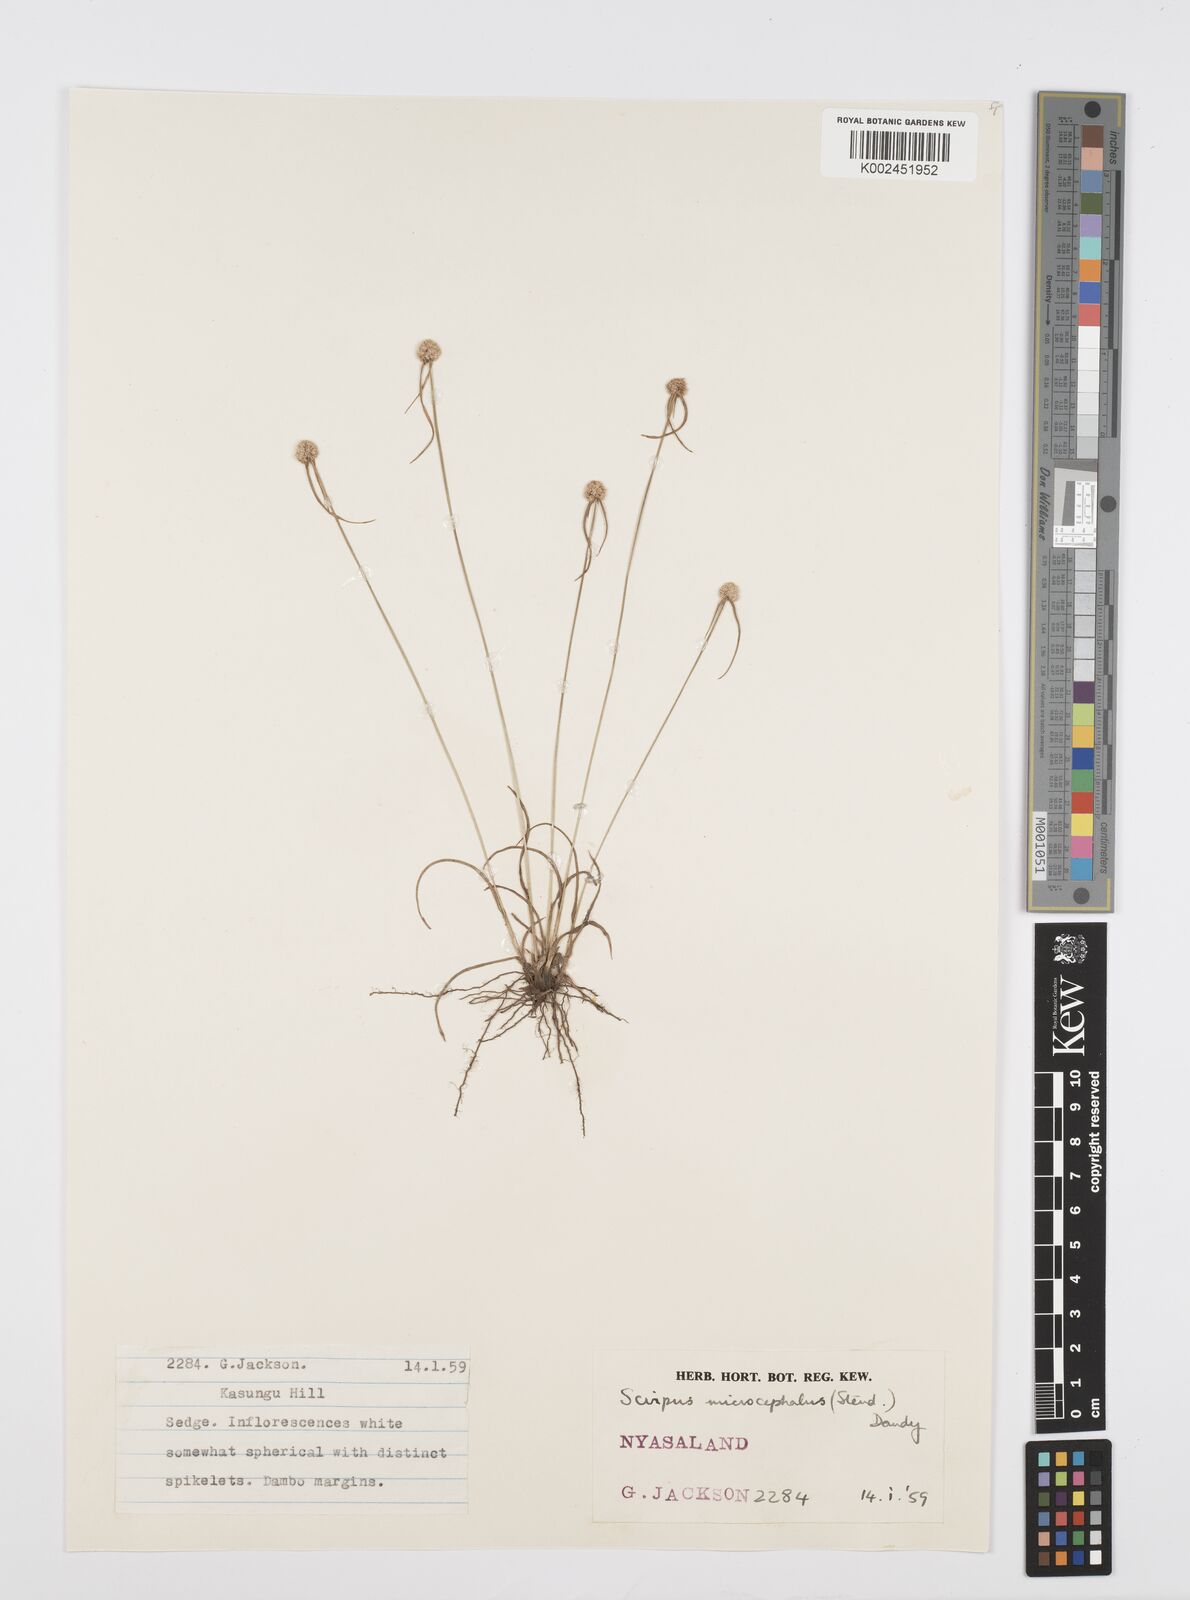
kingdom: Plantae
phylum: Tracheophyta
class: Liliopsida
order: Poales
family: Cyperaceae
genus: Cyperus
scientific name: Cyperus microcephalus
